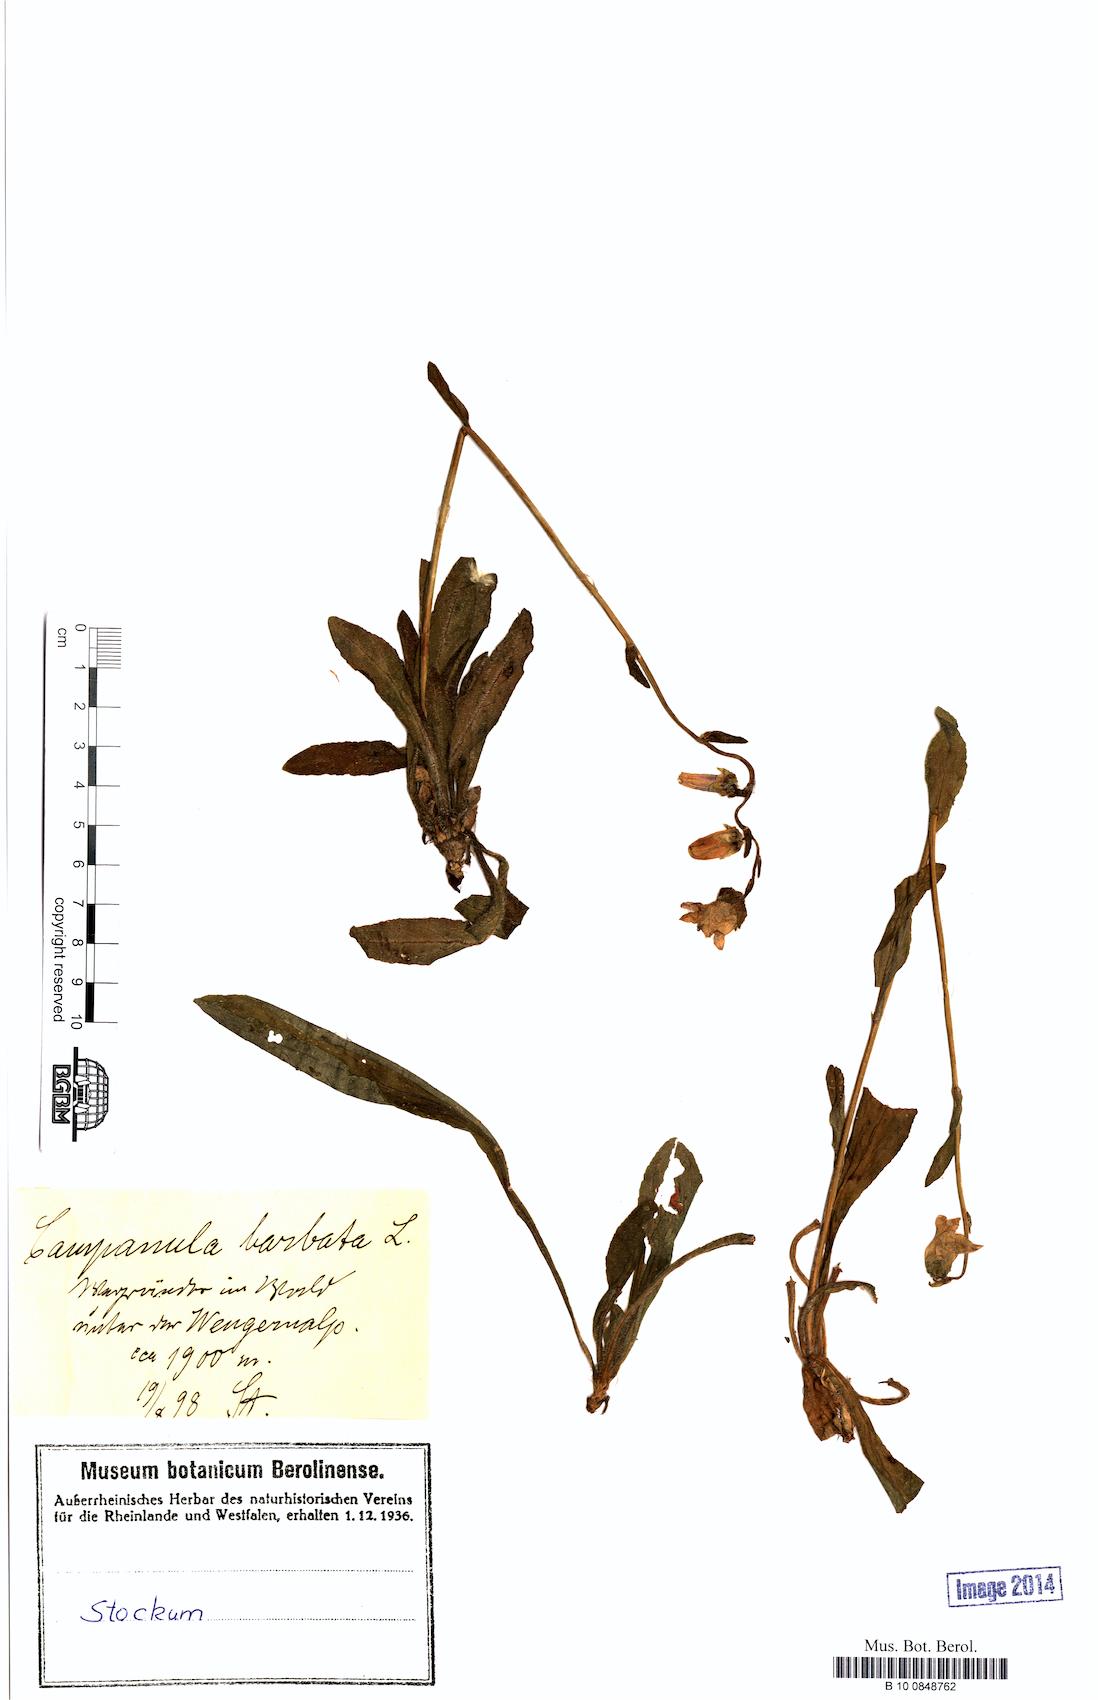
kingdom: Plantae
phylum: Tracheophyta
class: Magnoliopsida
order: Asterales
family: Campanulaceae
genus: Campanula
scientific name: Campanula barbata
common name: Bearded bellflower
